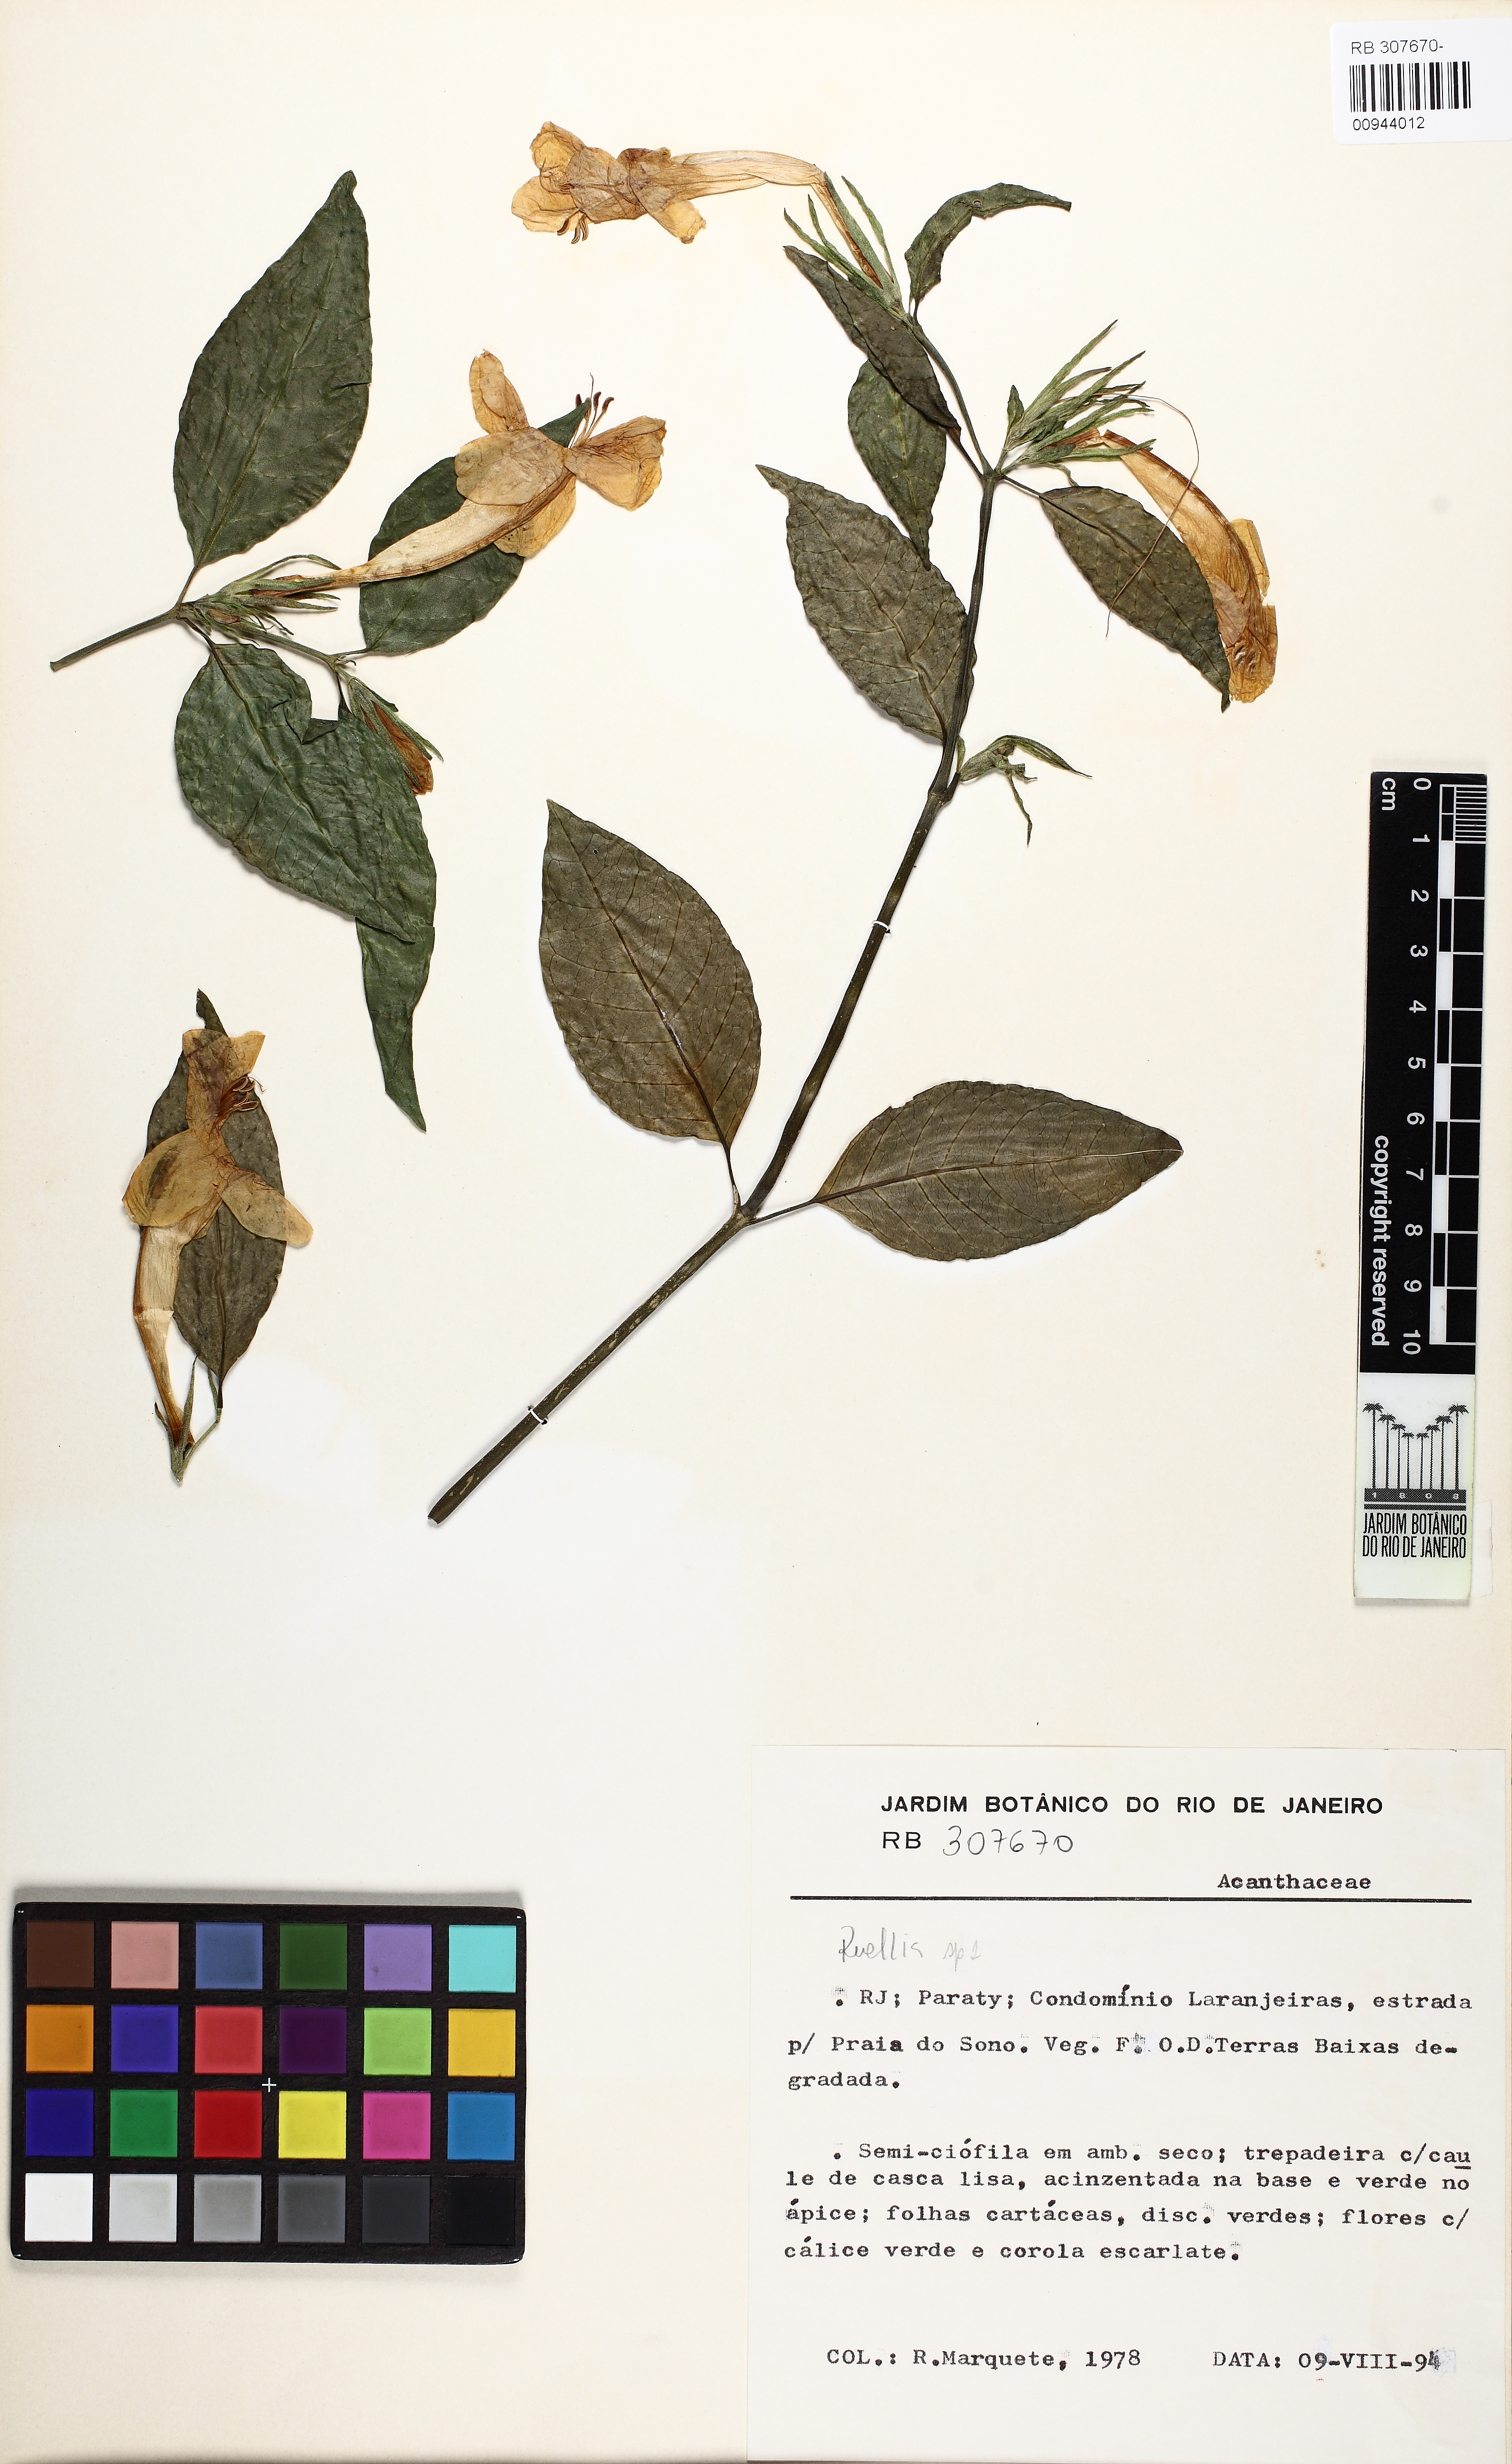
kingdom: Plantae
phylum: Tracheophyta
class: Magnoliopsida
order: Lamiales
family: Acanthaceae
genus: Ruellia
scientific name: Ruellia
